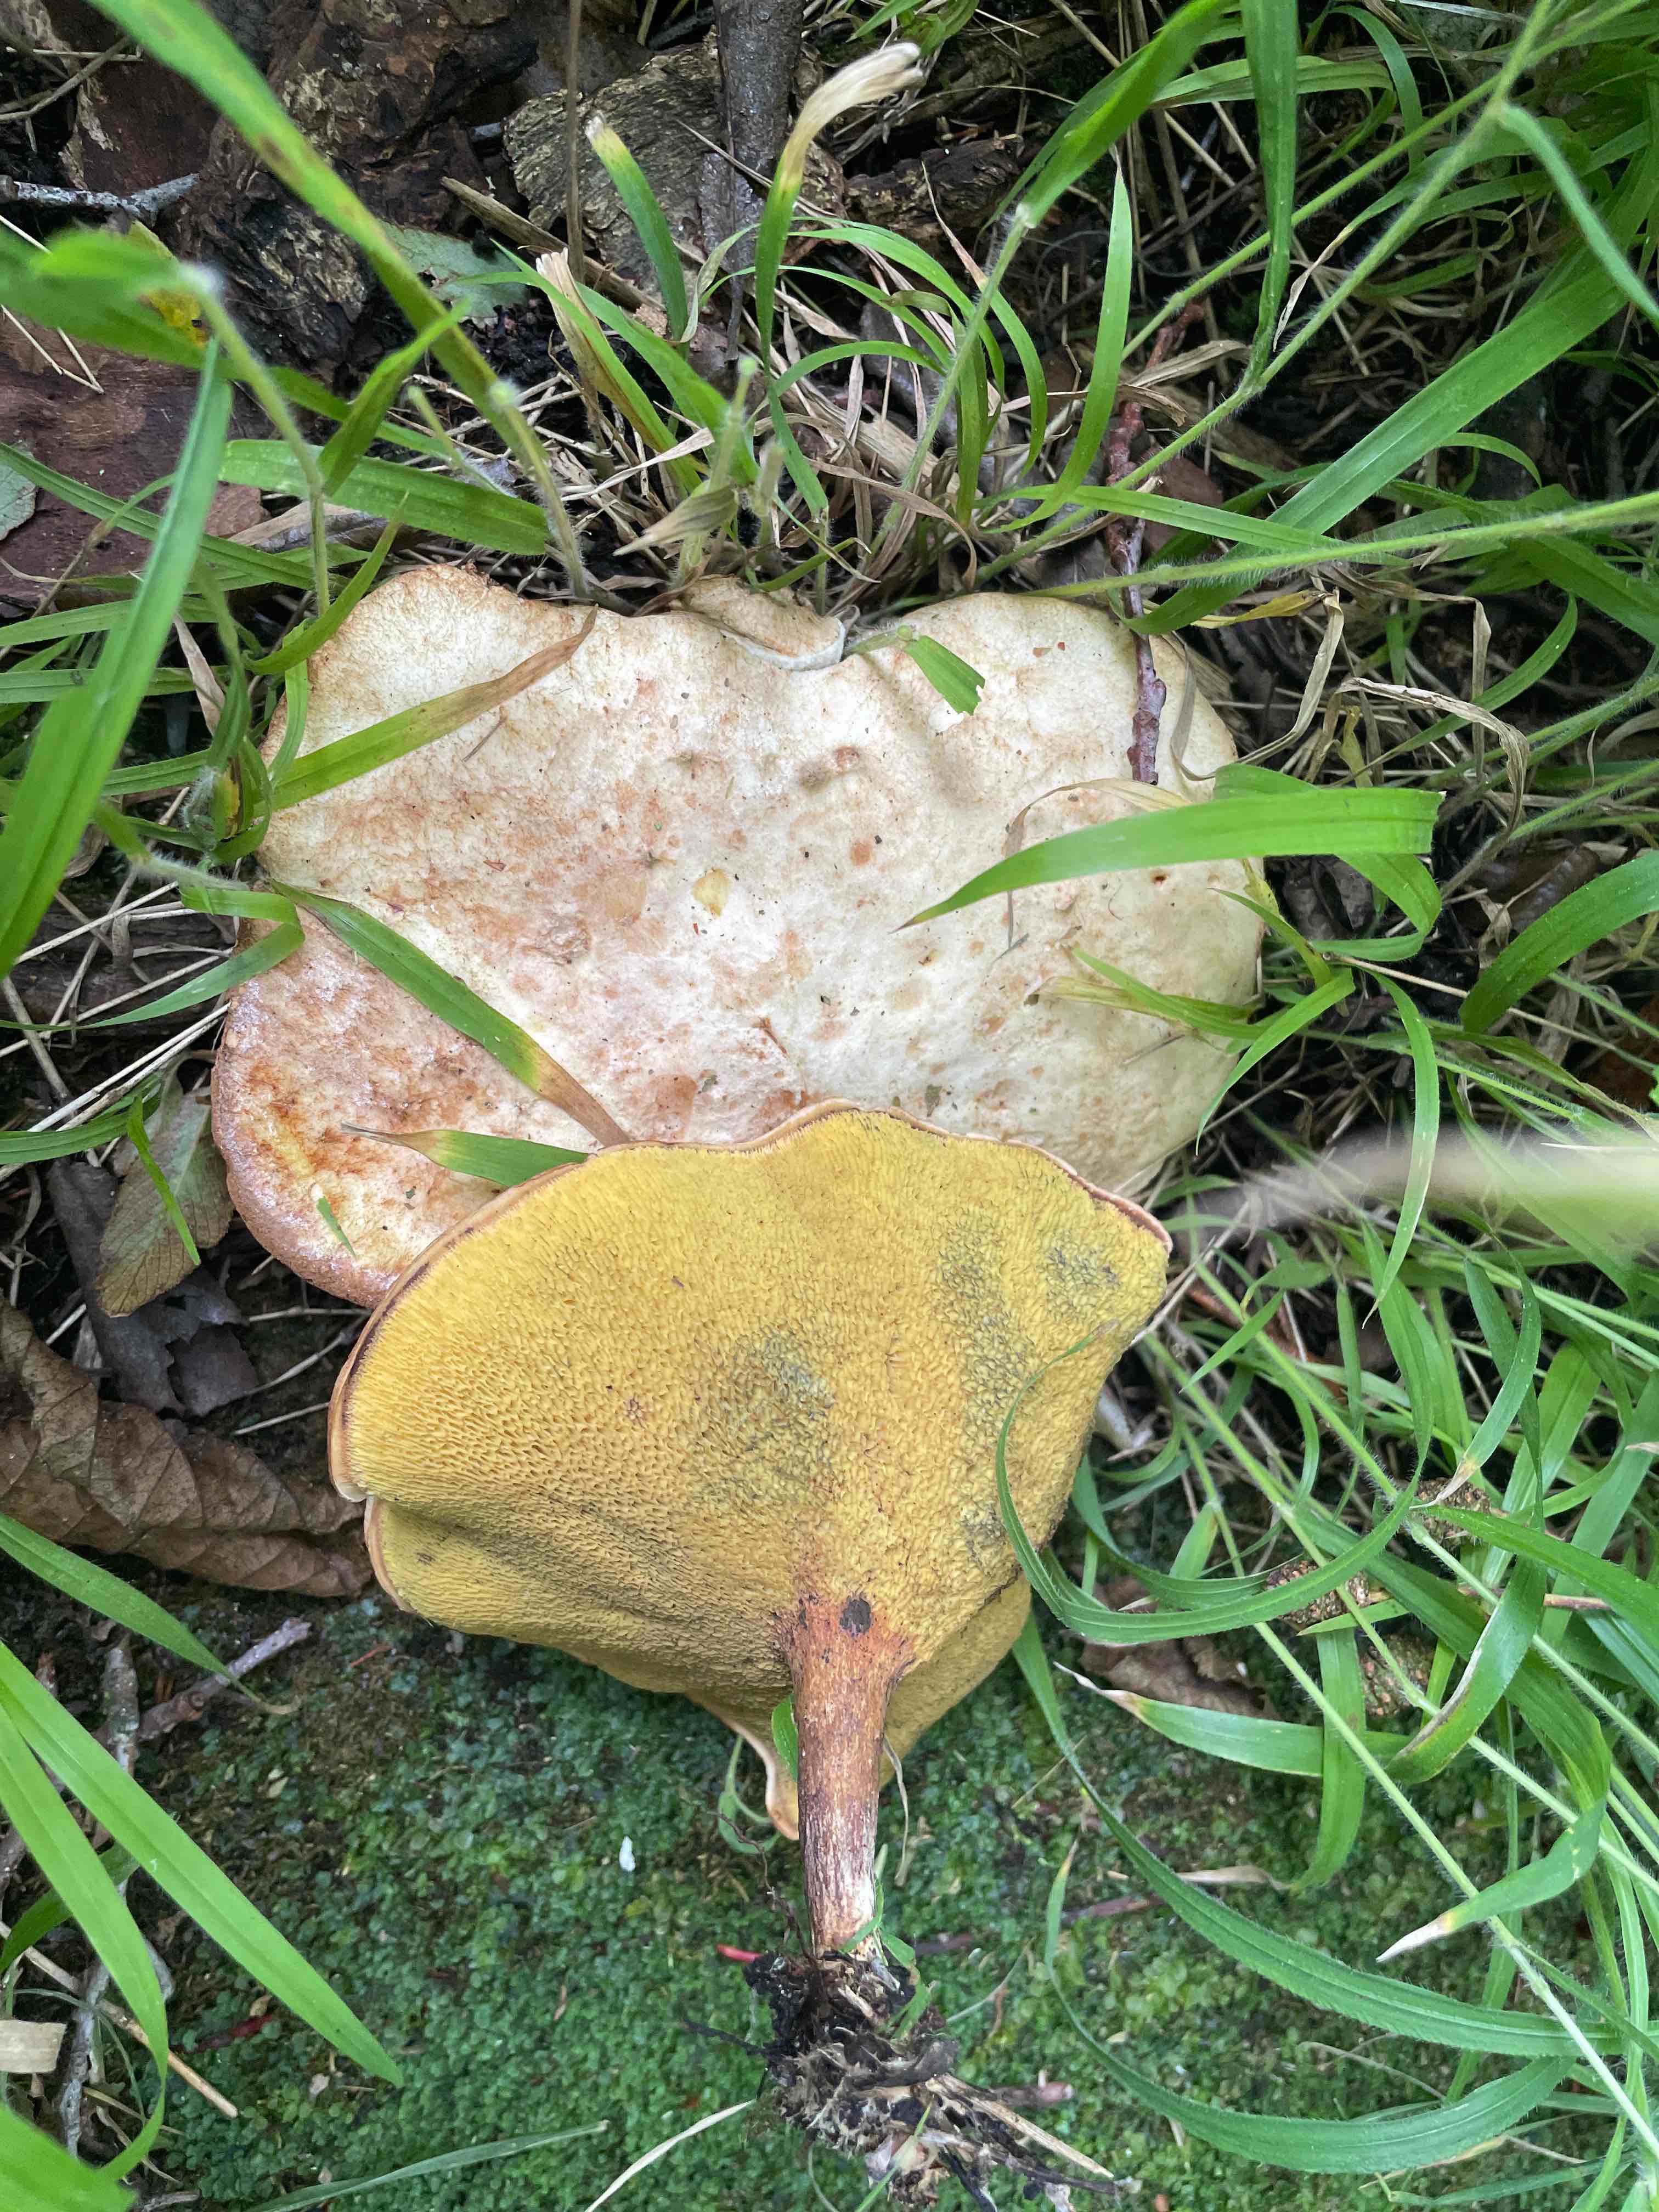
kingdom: Fungi
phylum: Basidiomycota
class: Agaricomycetes
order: Boletales
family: Paxillaceae
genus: Gyrodon
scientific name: Gyrodon lividus
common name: ellerørhat
